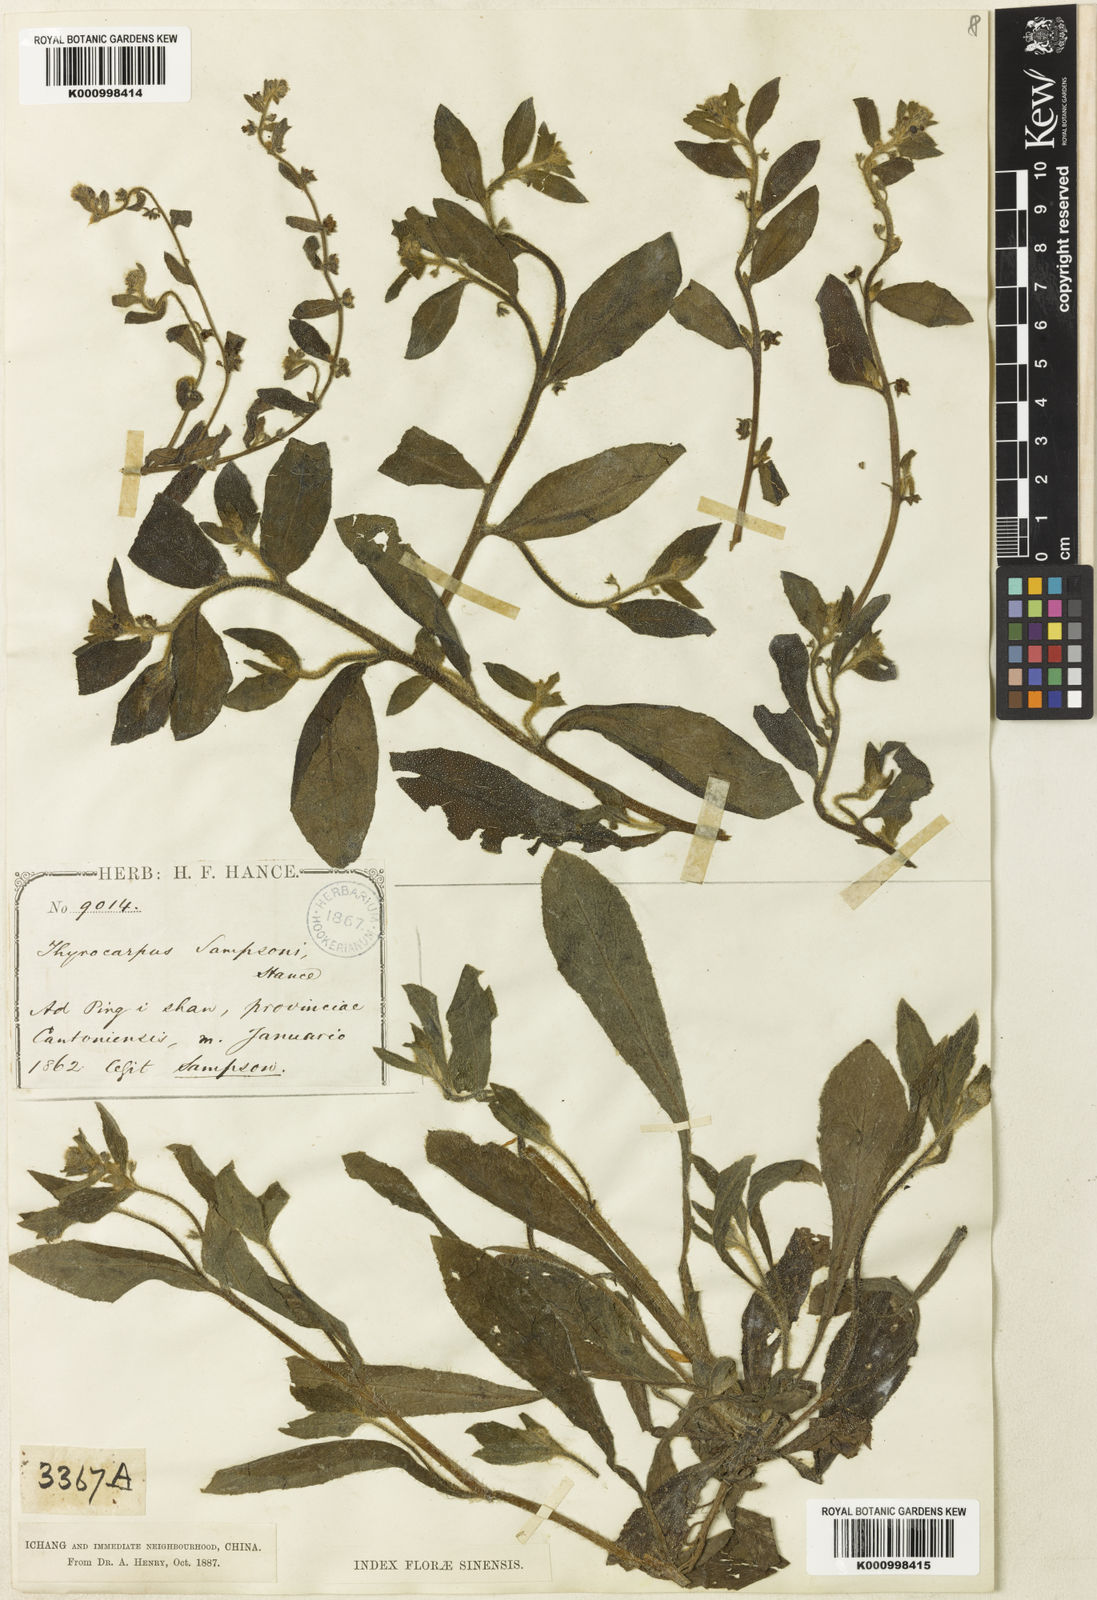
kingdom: Plantae
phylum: Tracheophyta
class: Magnoliopsida
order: Boraginales
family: Boraginaceae
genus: Thyrocarpus
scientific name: Thyrocarpus sampsonii
